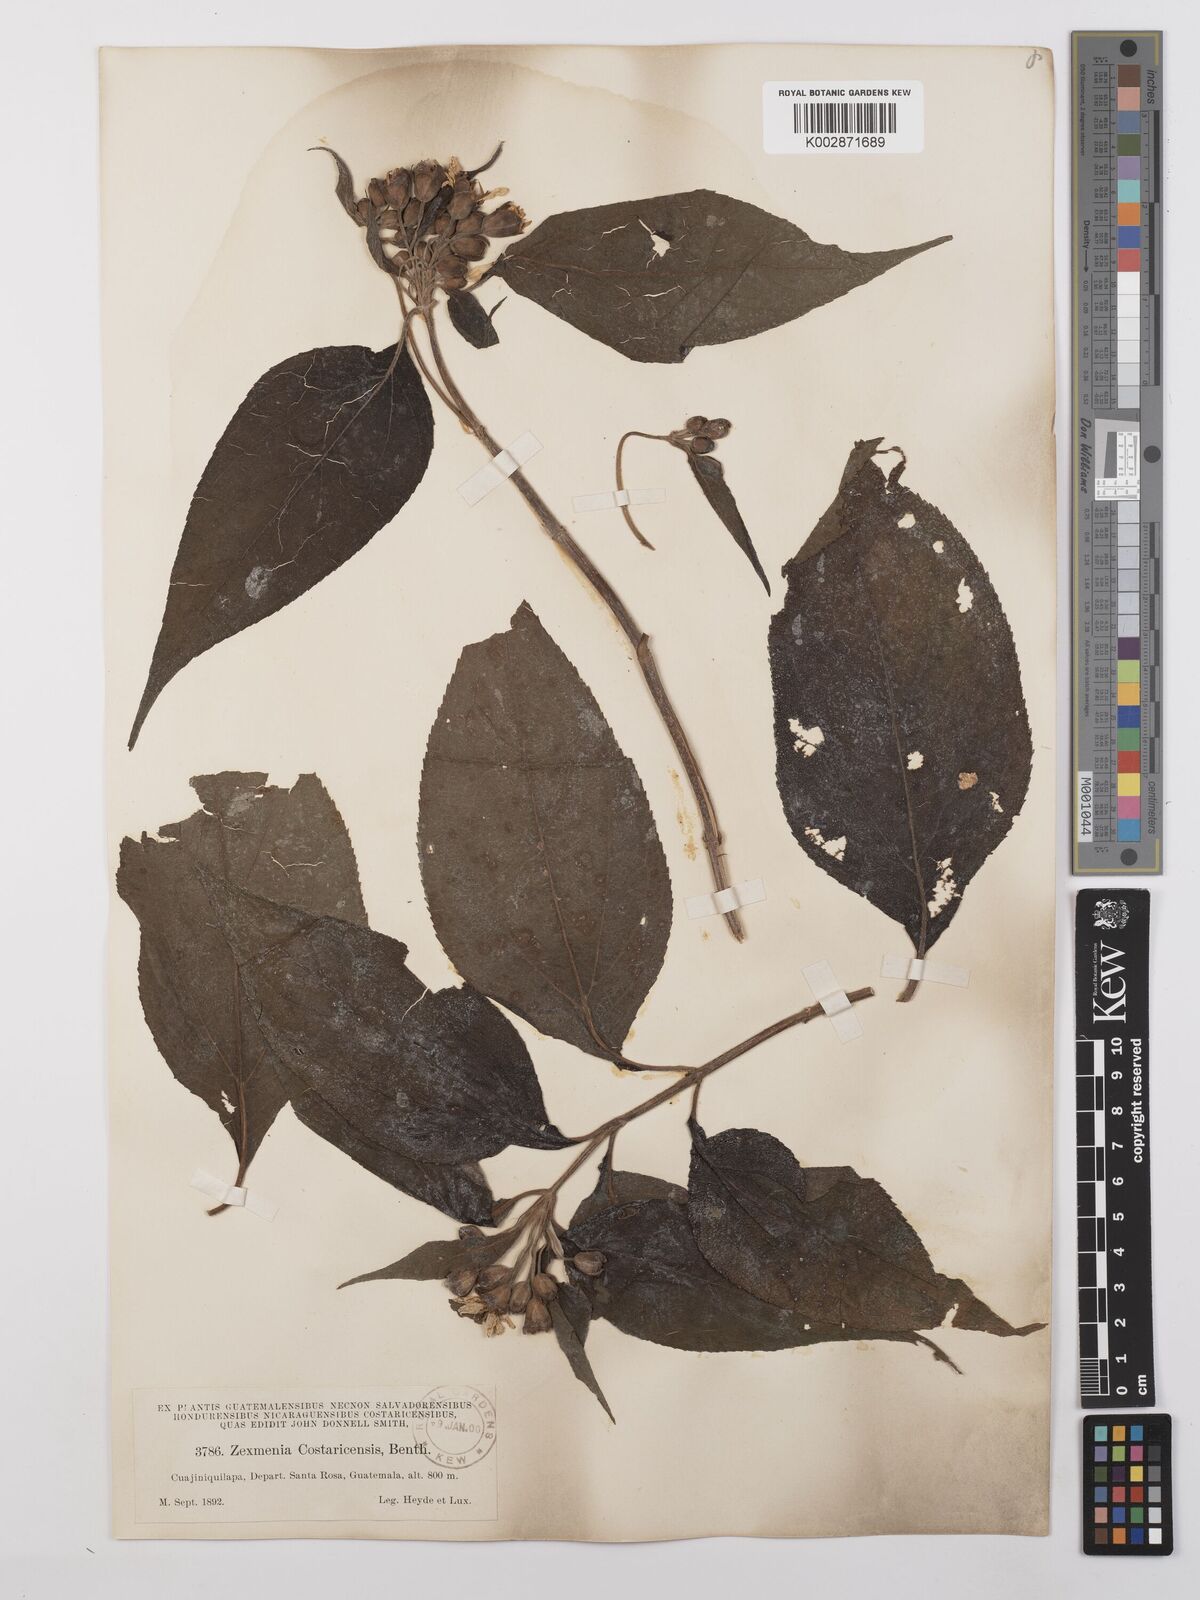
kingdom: Plantae
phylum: Tracheophyta
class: Magnoliopsida
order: Asterales
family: Asteraceae
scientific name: Asteraceae
